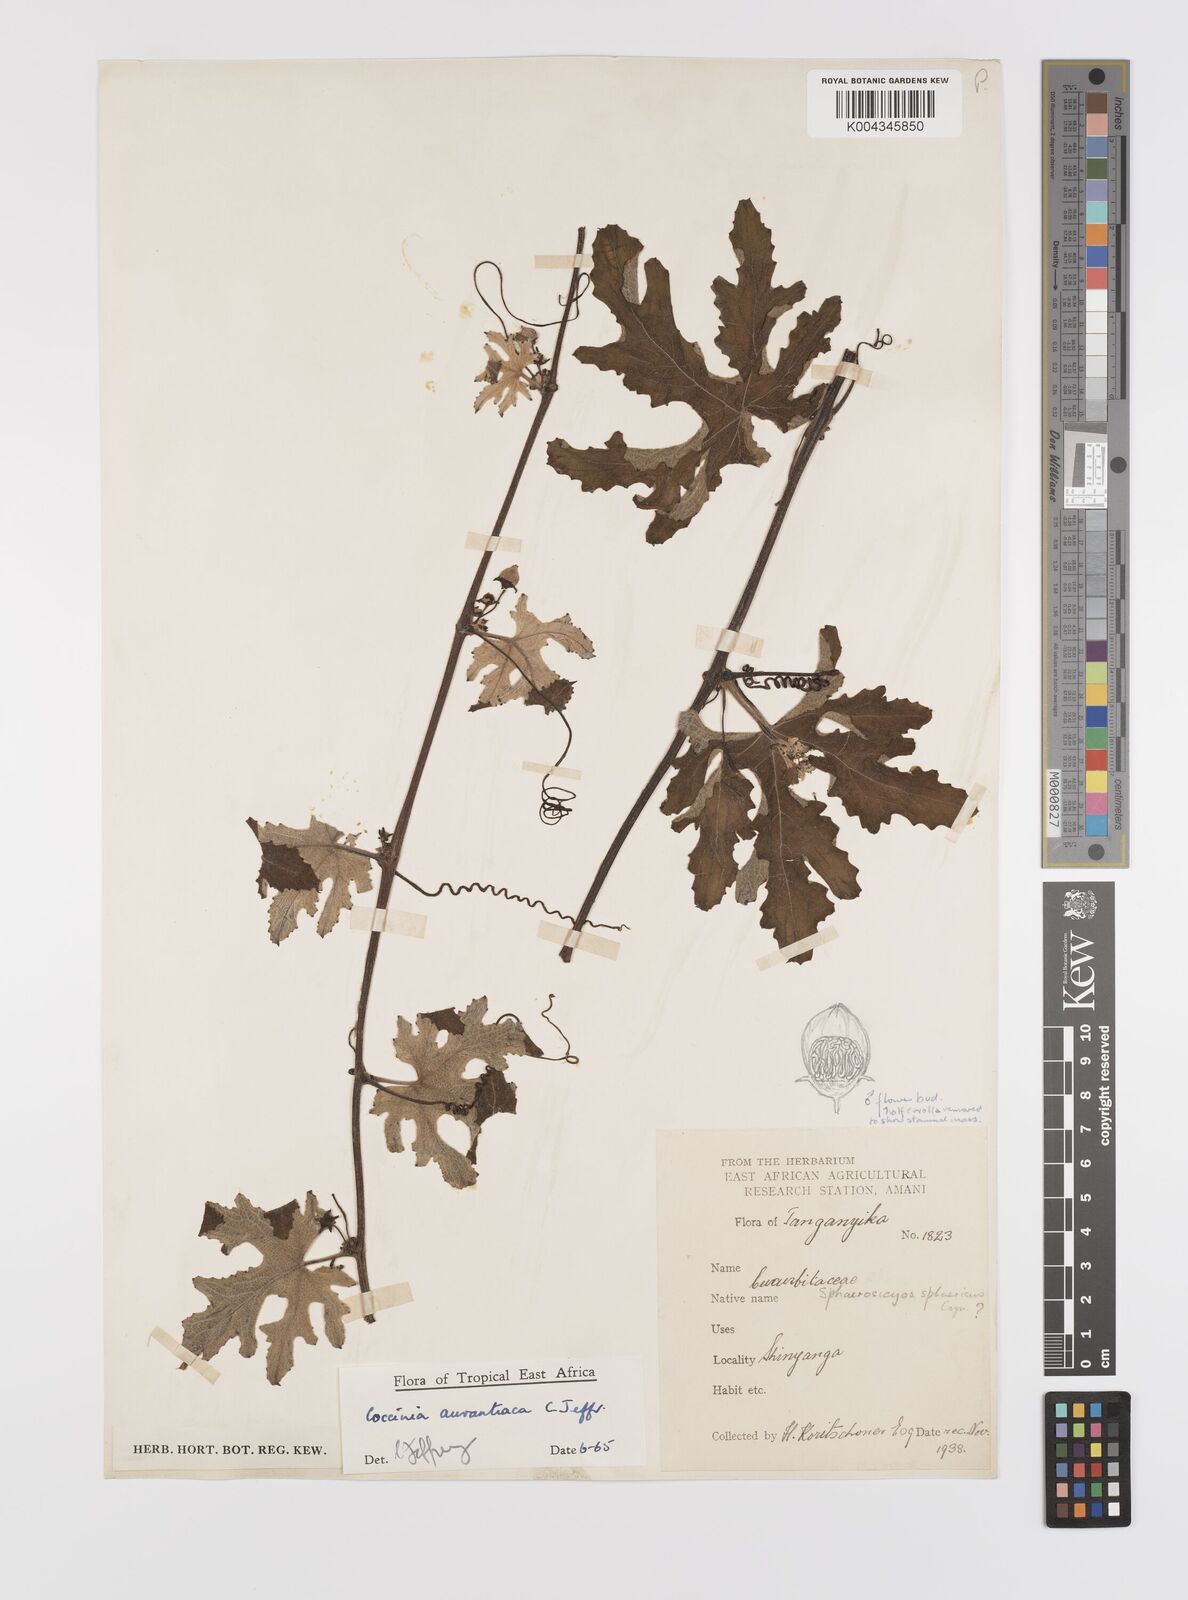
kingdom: Plantae
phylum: Tracheophyta
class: Magnoliopsida
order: Cucurbitales
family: Cucurbitaceae
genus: Coccinia
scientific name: Coccinia adoensis
